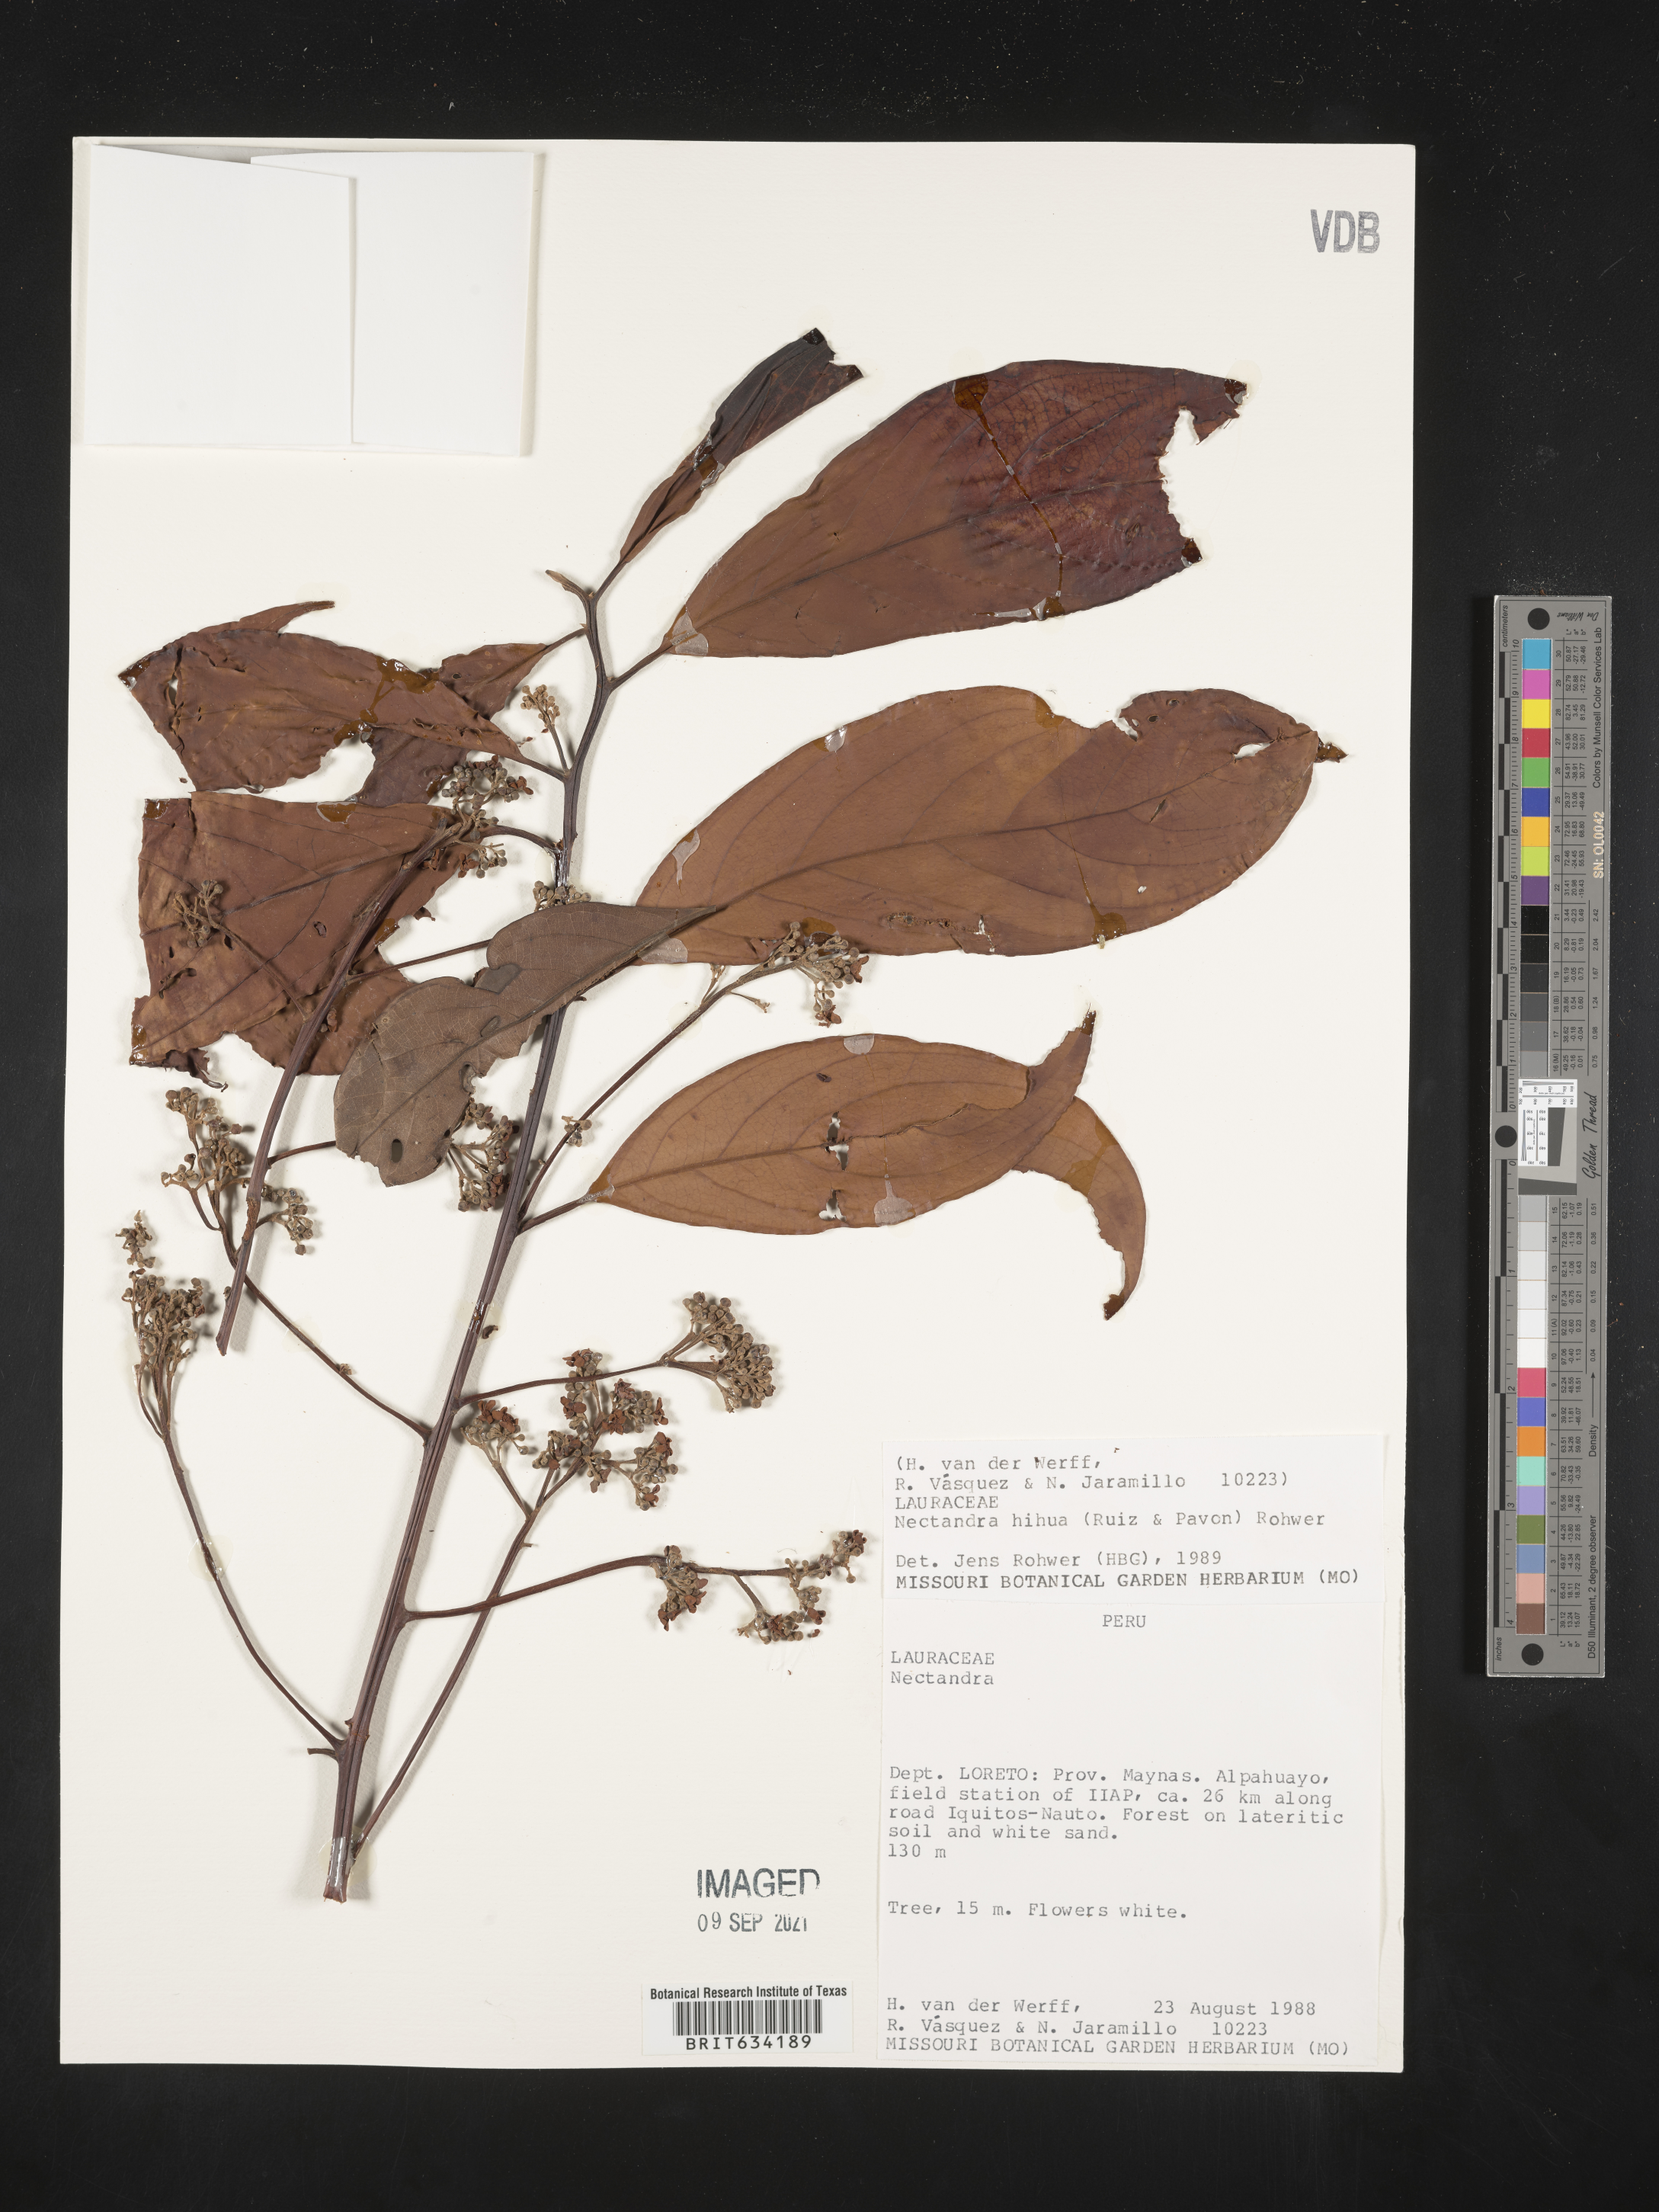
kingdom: Plantae
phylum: Tracheophyta
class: Magnoliopsida
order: Laurales
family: Lauraceae
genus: Nectandra
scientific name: Nectandra
